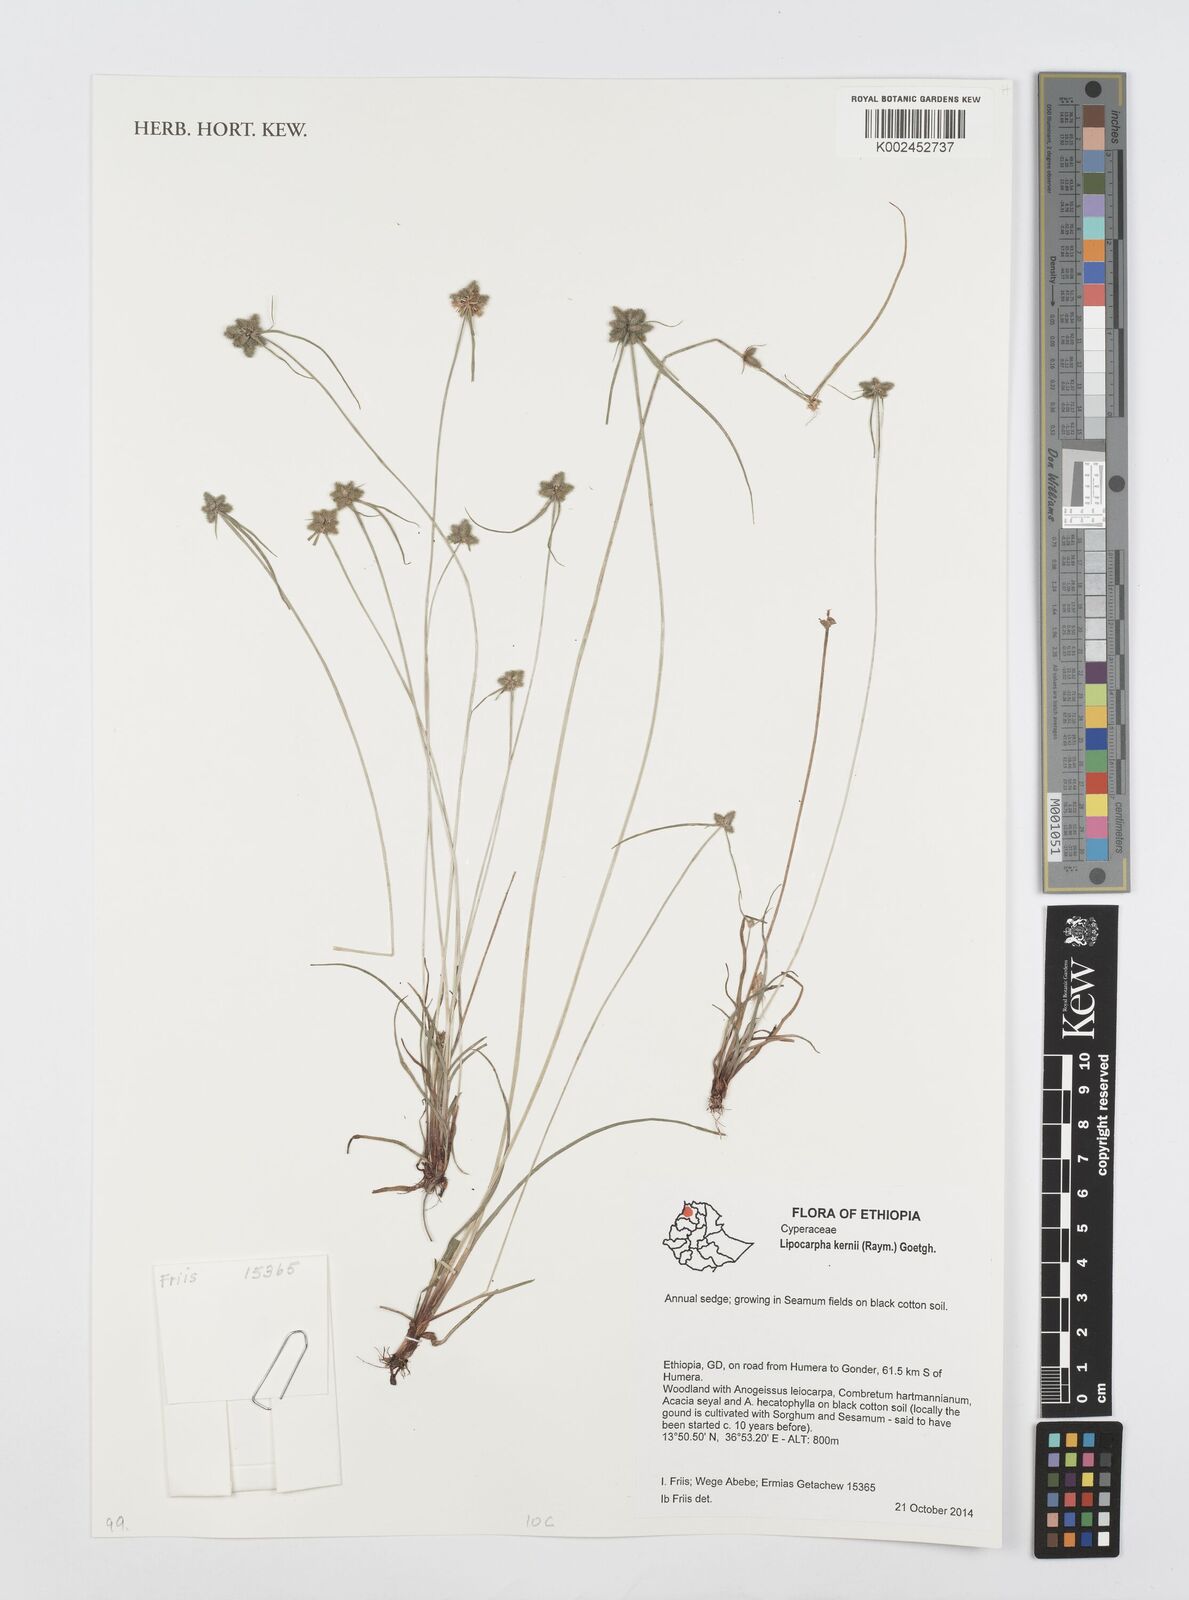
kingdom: Plantae
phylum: Tracheophyta
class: Liliopsida
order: Poales
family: Cyperaceae
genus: Cyperus
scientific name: Cyperus kernii
